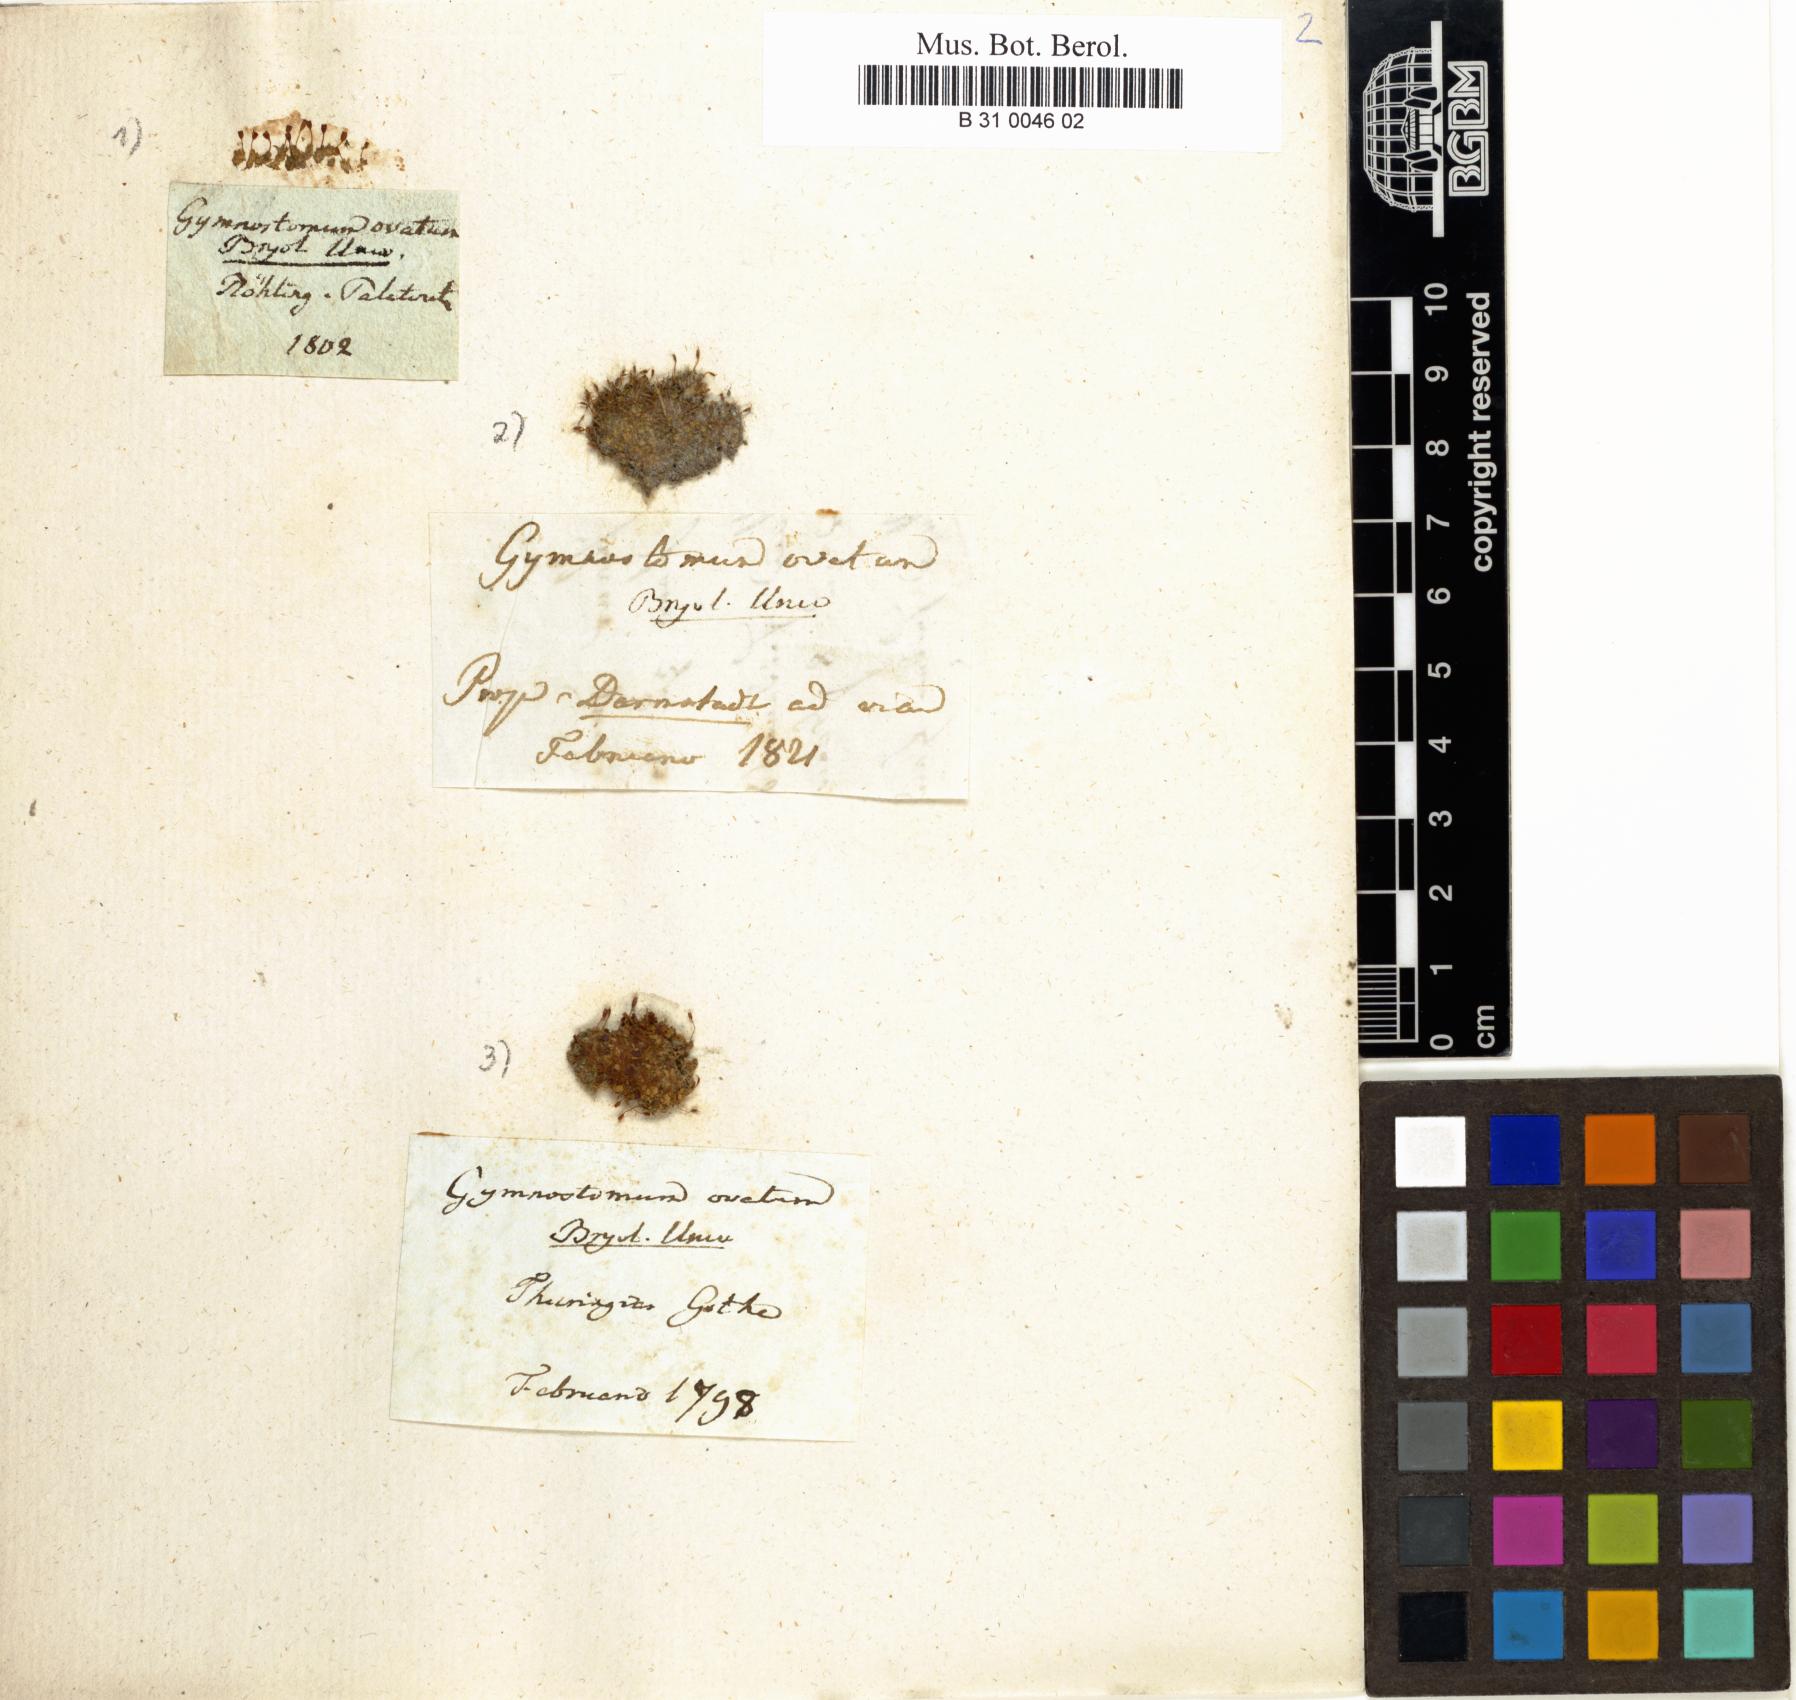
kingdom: Plantae
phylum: Bryophyta
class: Bryopsida
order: Pottiales
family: Pottiaceae
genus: Pterygoneurum
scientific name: Pterygoneurum ovatum
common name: Ovate pterygoneurum
